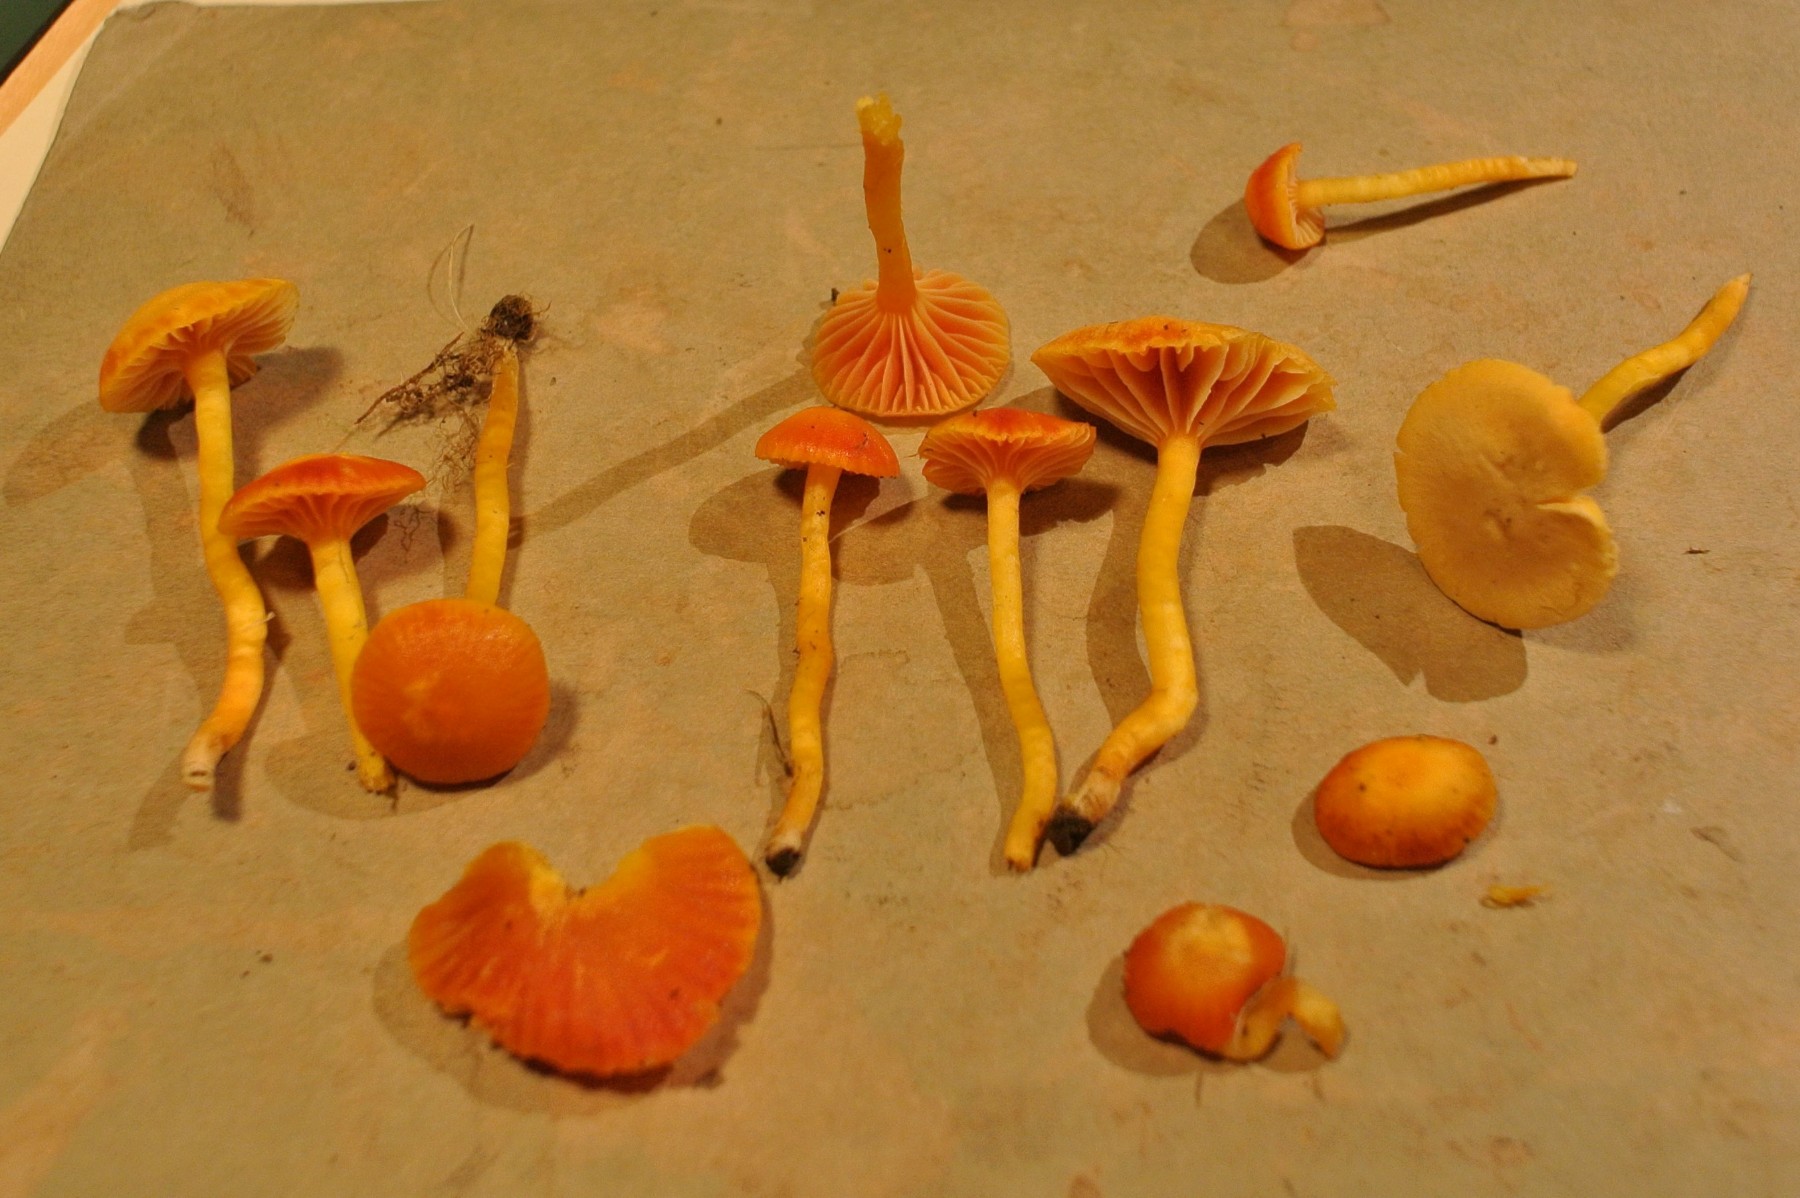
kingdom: Fungi
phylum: Basidiomycota
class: Agaricomycetes
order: Agaricales
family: Hygrophoraceae
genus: Hygrocybe
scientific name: Hygrocybe
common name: vokshat
